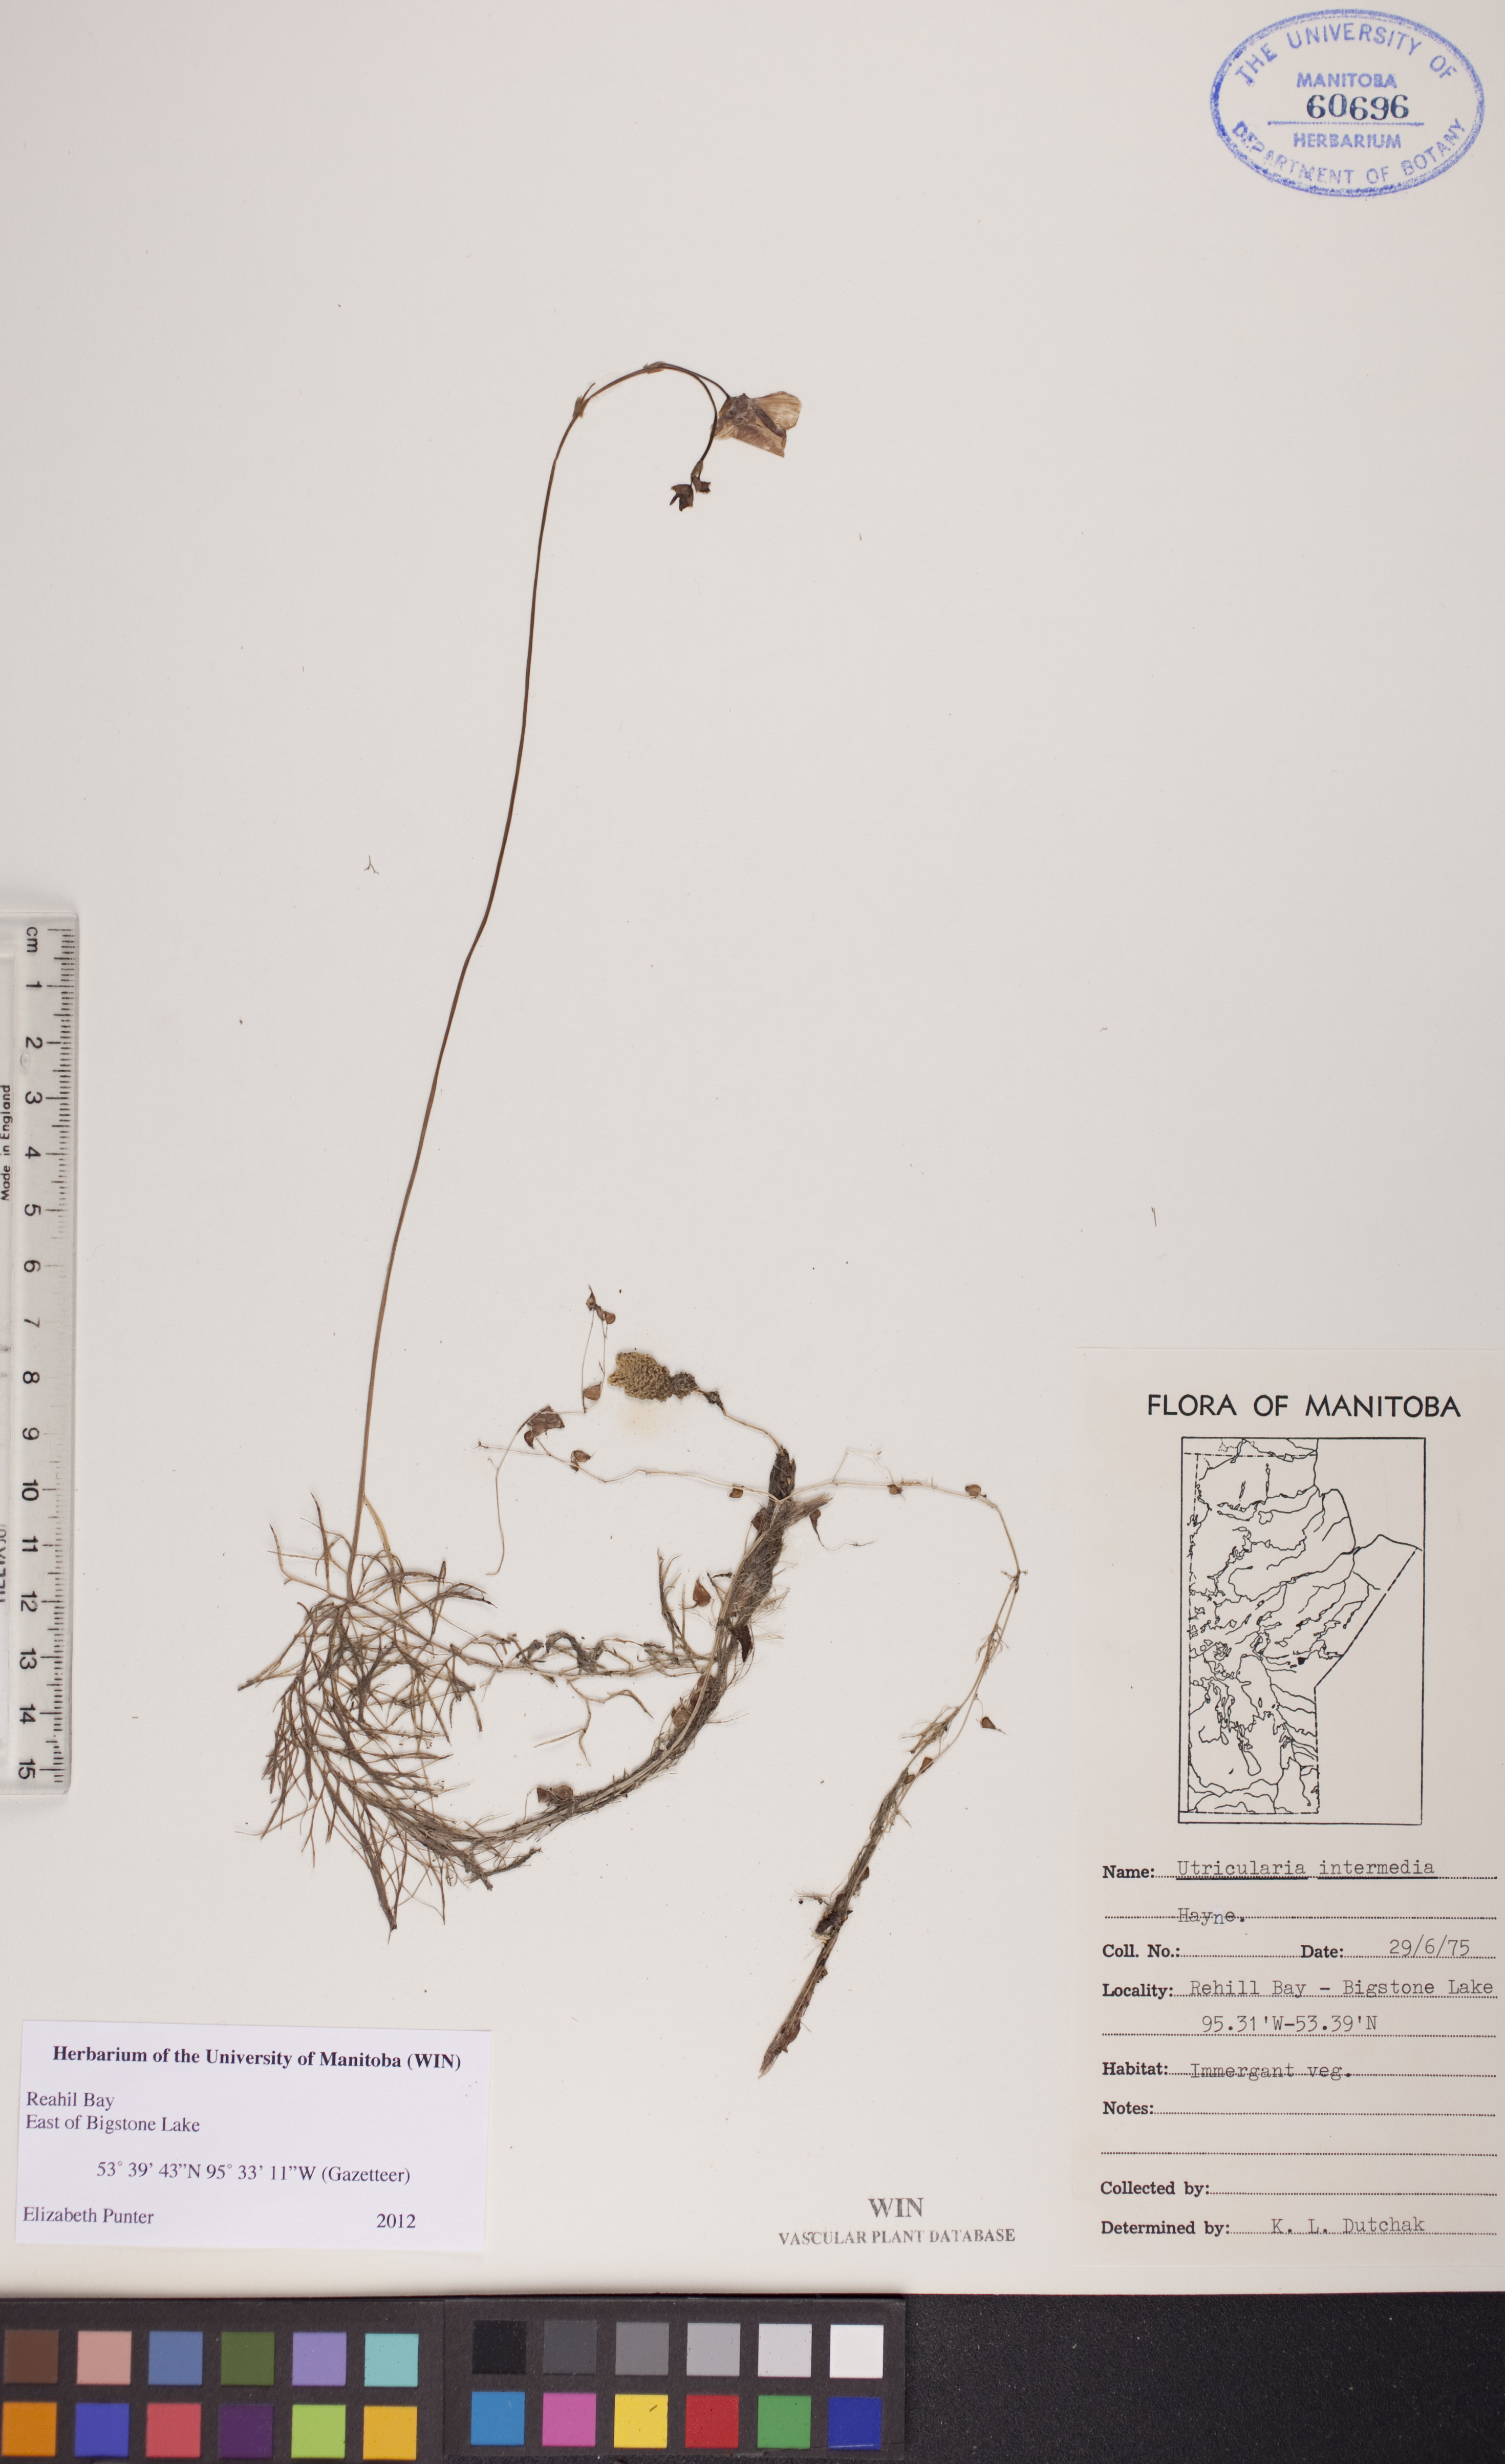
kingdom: Plantae
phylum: Tracheophyta
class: Magnoliopsida
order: Lamiales
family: Lentibulariaceae
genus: Utricularia
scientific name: Utricularia intermedia
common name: Intermediate bladderwort
